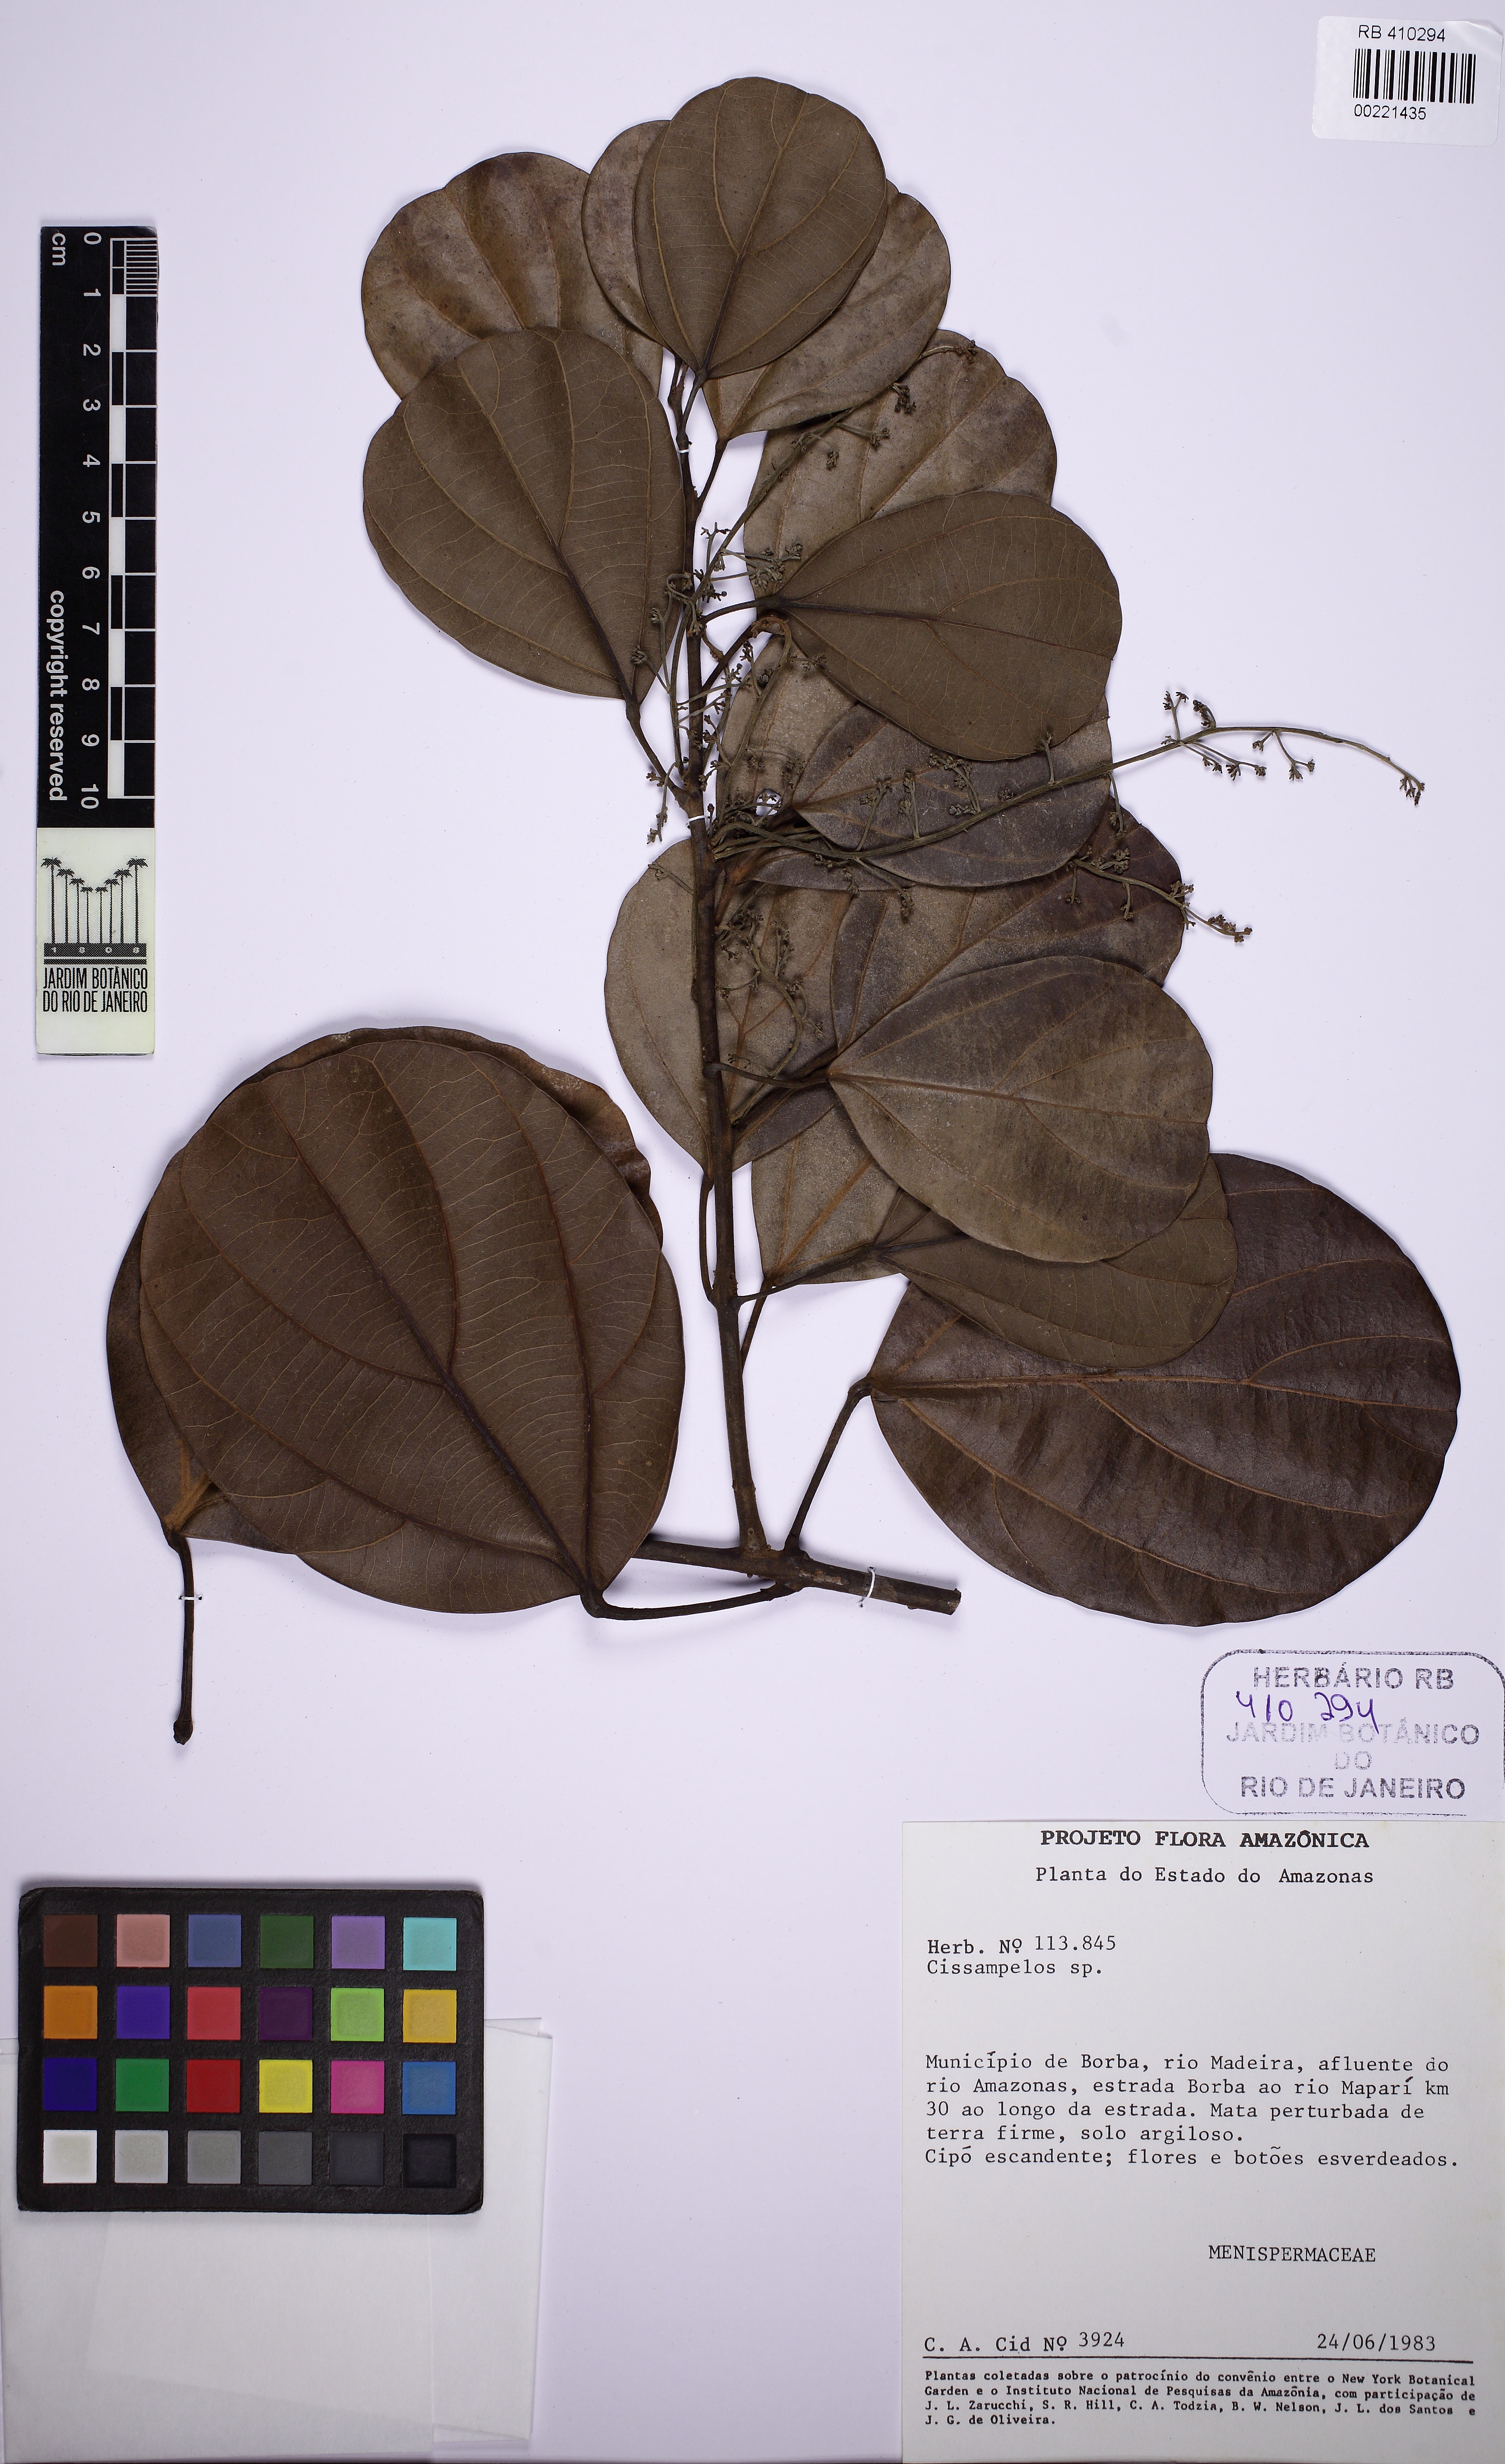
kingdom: Plantae
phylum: Tracheophyta
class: Magnoliopsida
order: Ranunculales
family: Menispermaceae
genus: Abuta
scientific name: Abuta obovata
